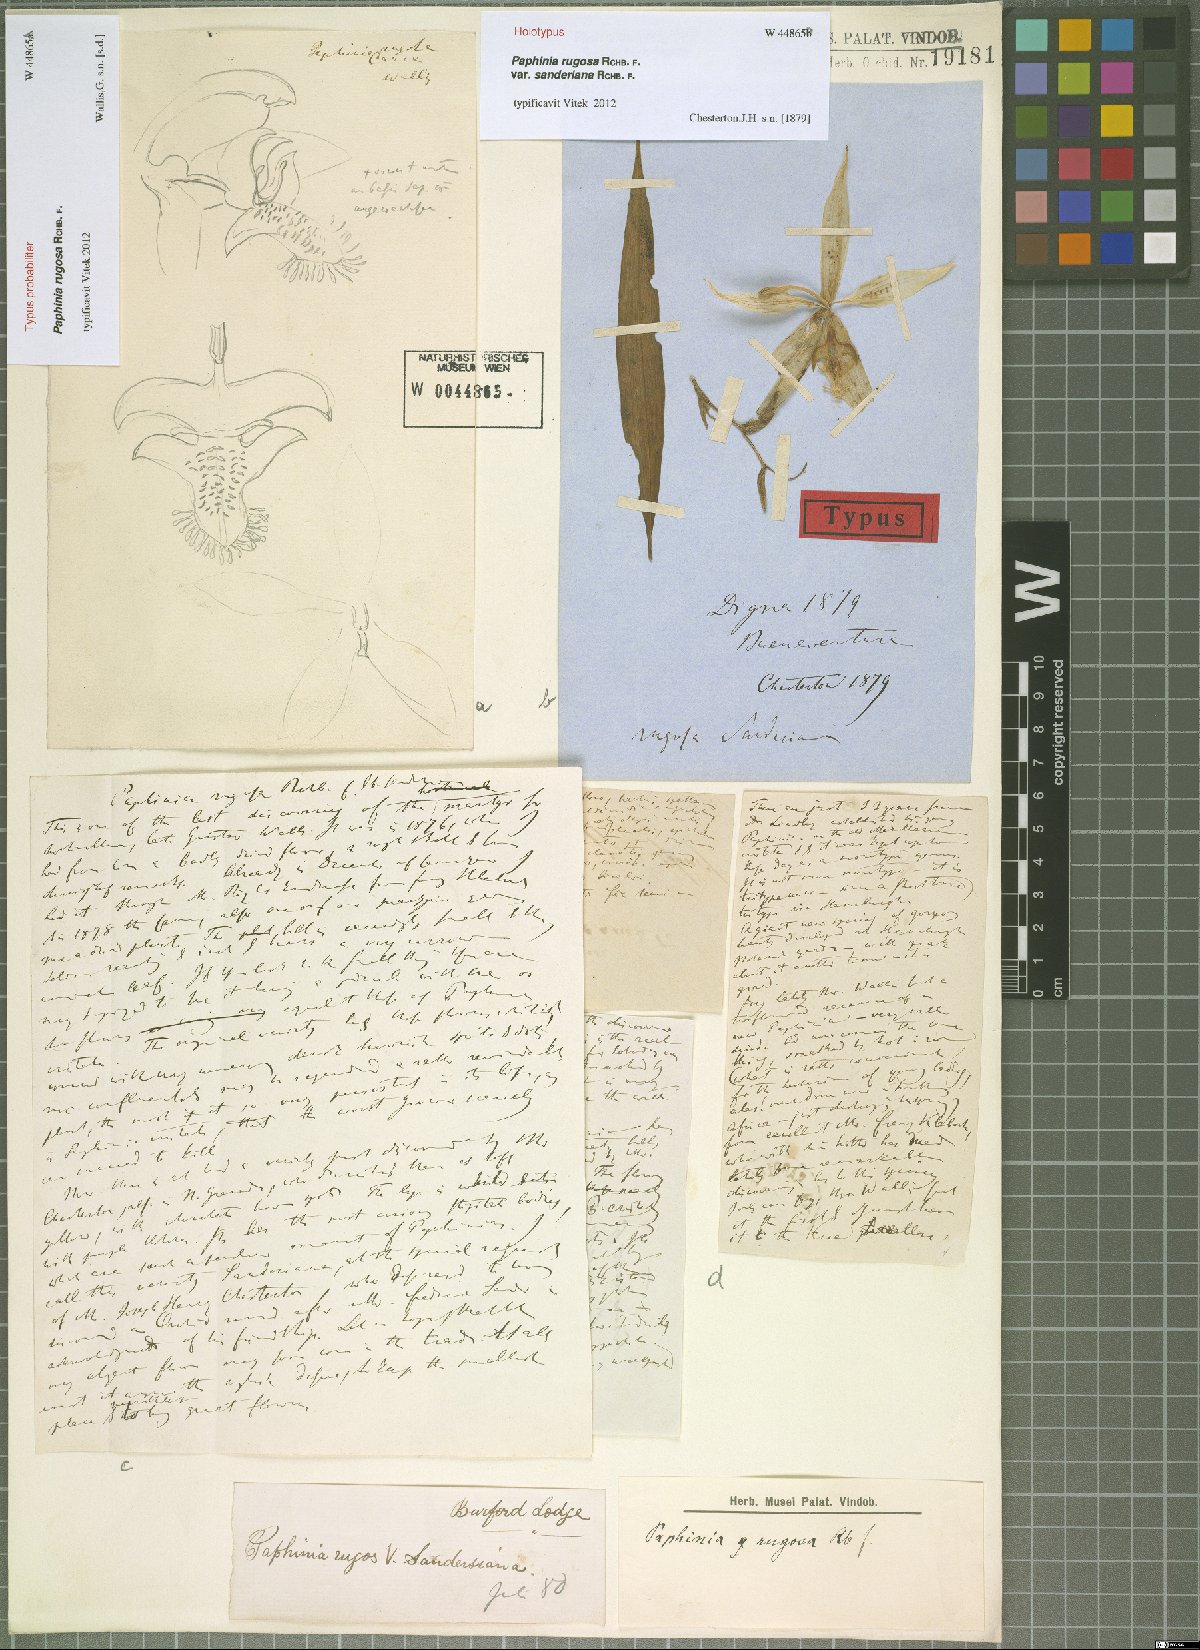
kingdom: Plantae
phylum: Tracheophyta
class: Liliopsida
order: Asparagales
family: Orchidaceae
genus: Paphinia
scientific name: Paphinia rugosa
